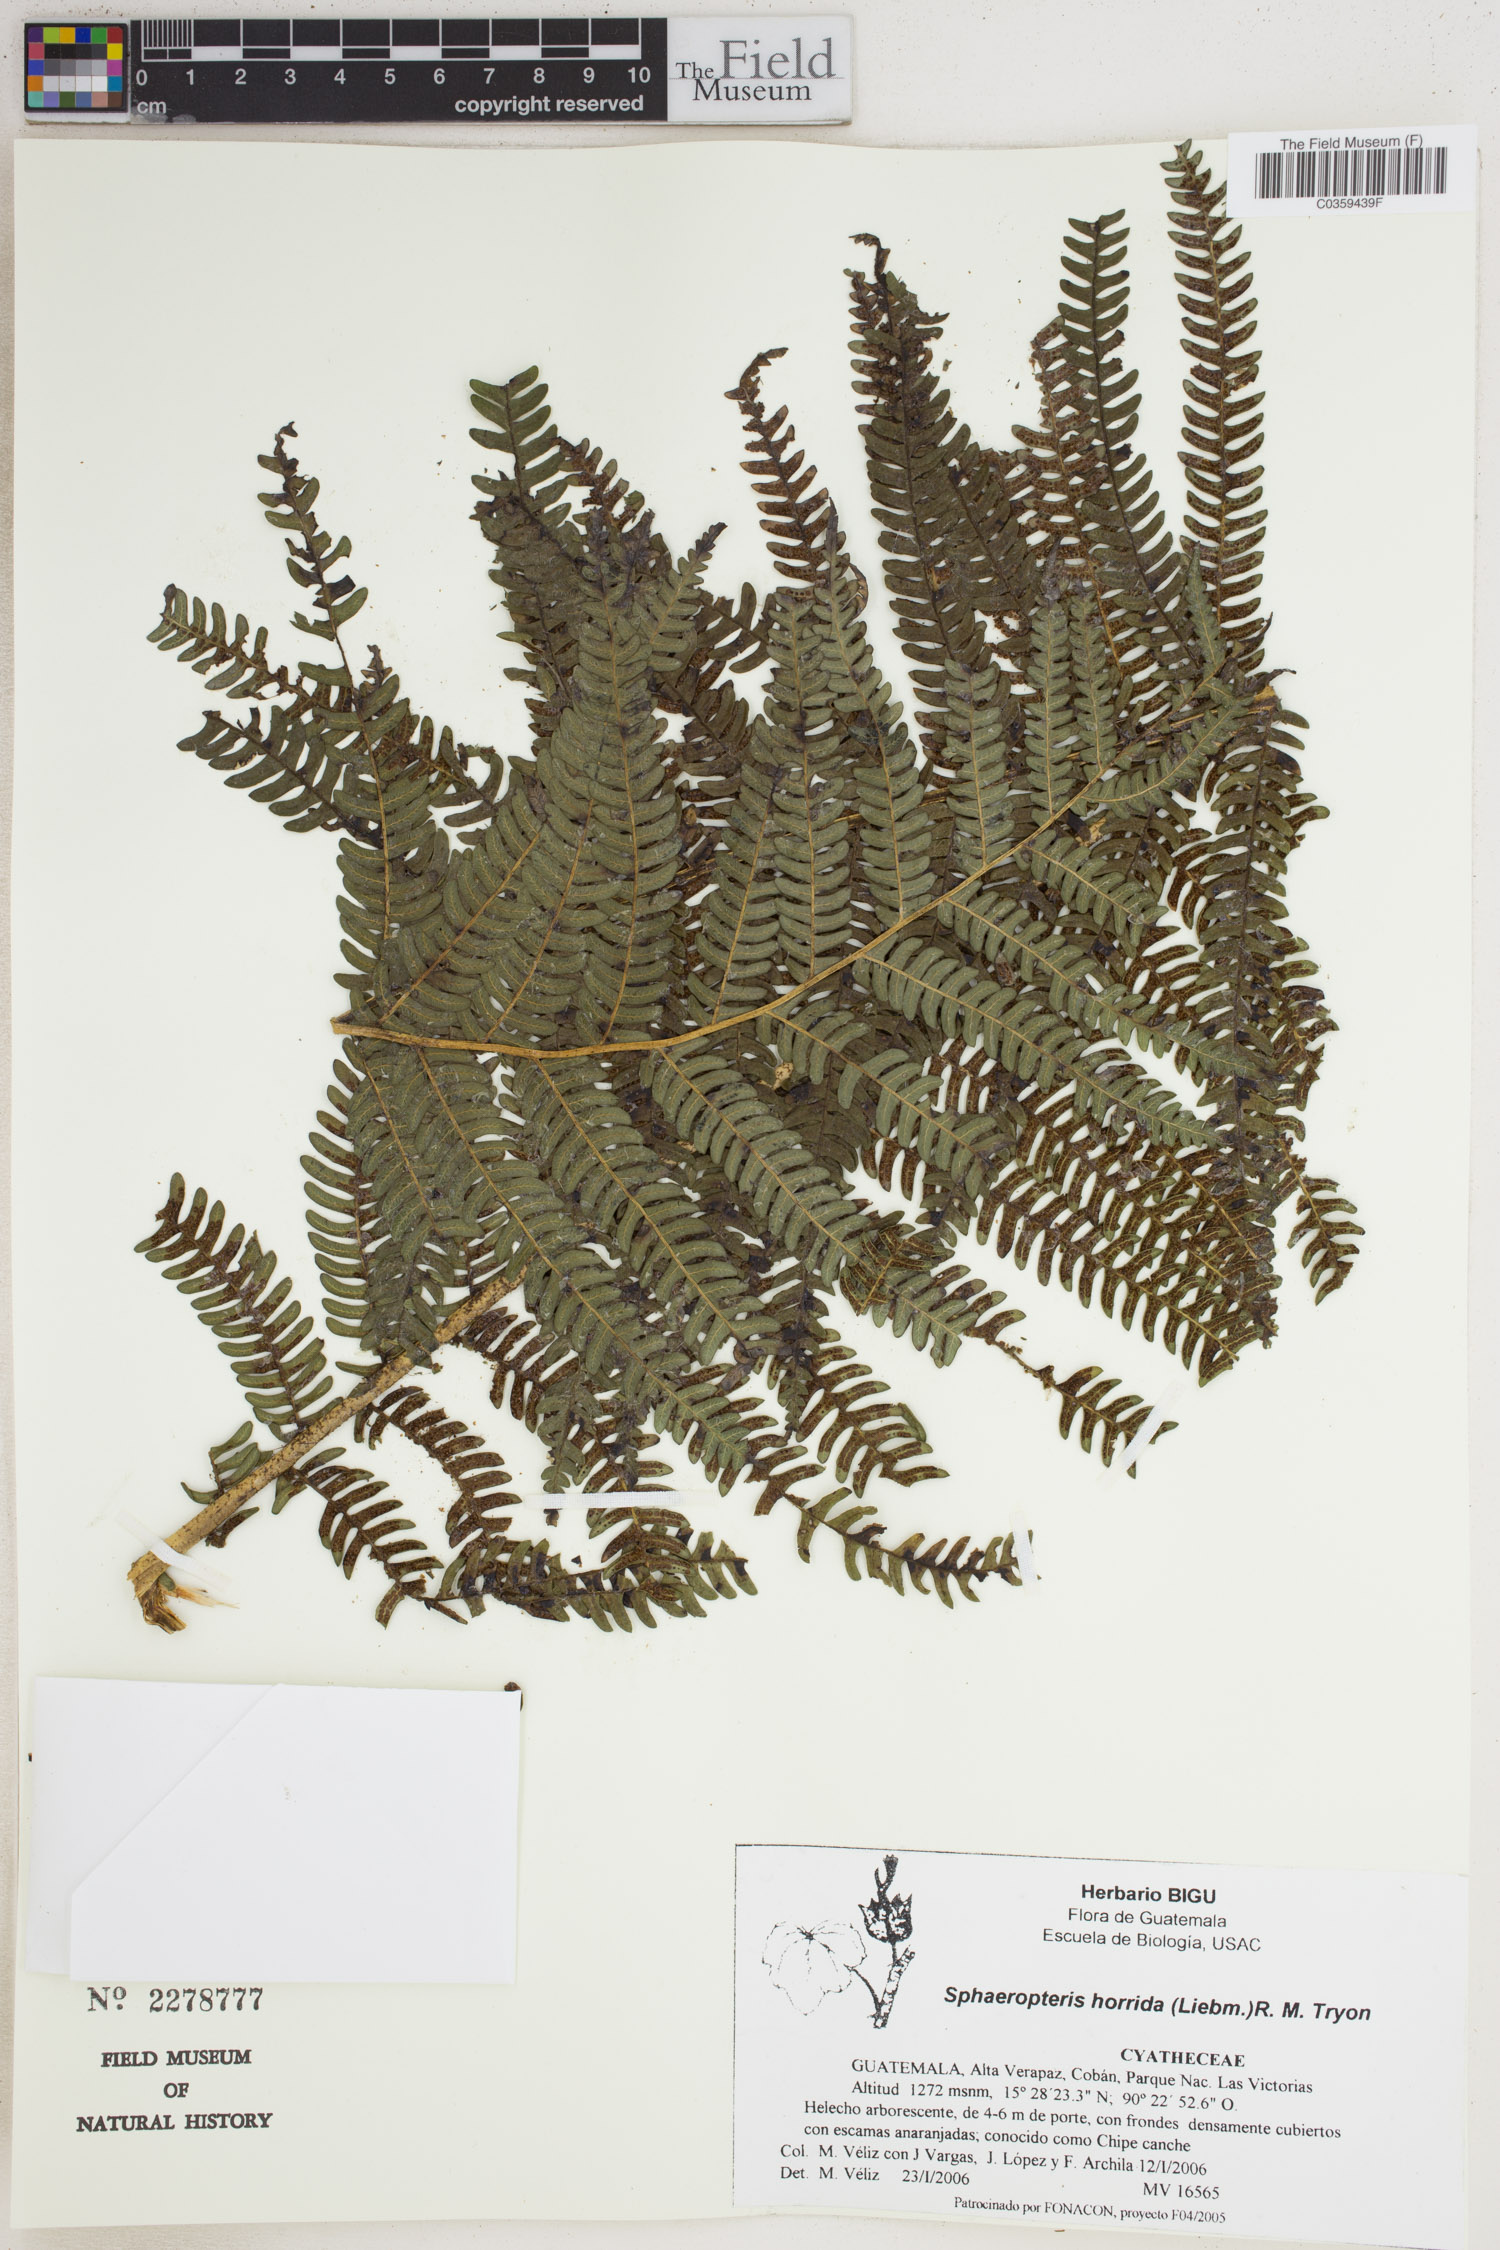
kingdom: Plantae
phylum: Tracheophyta
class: Polypodiopsida
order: Cyatheales
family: Cyatheaceae
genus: Sphaeropteris
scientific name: Sphaeropteris horrida
